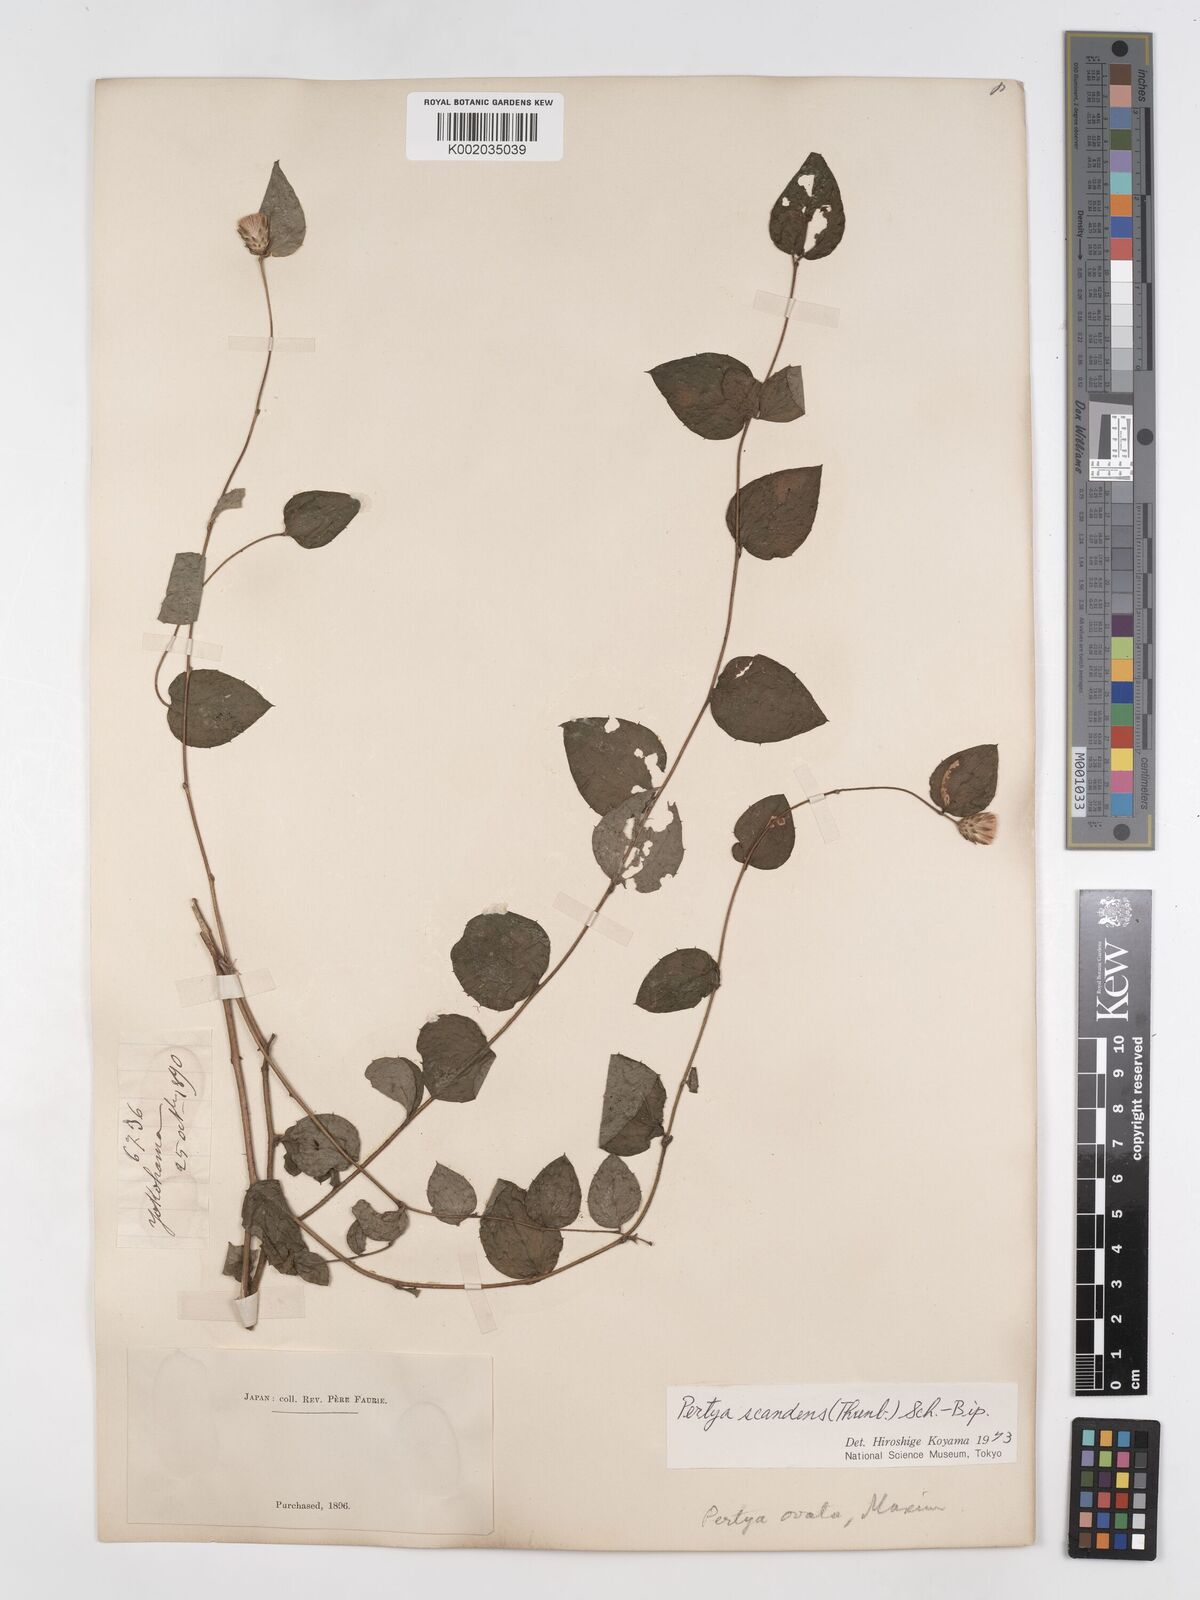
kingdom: Plantae
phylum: Tracheophyta
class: Magnoliopsida
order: Asterales
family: Asteraceae
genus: Pertya
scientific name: Pertya scandens
